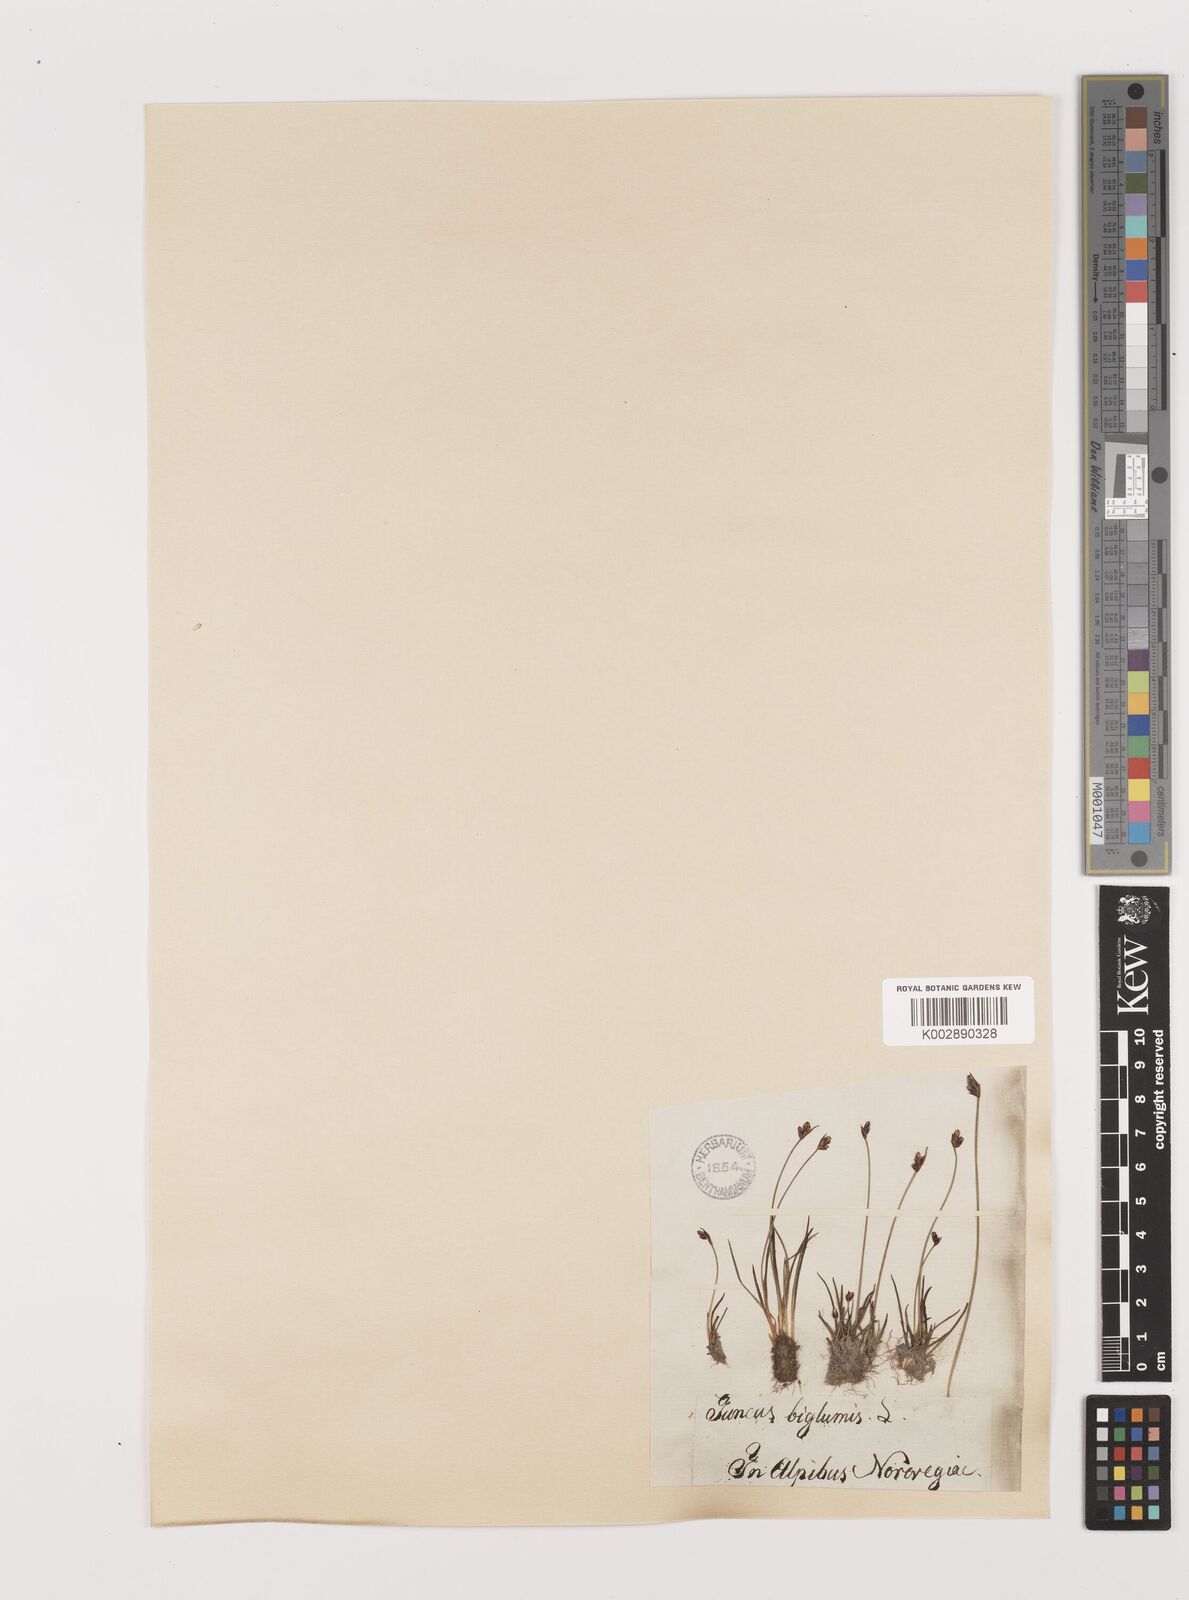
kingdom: Plantae
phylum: Tracheophyta
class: Liliopsida
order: Poales
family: Juncaceae
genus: Juncus
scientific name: Juncus biglumis
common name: Two-flowered rush
